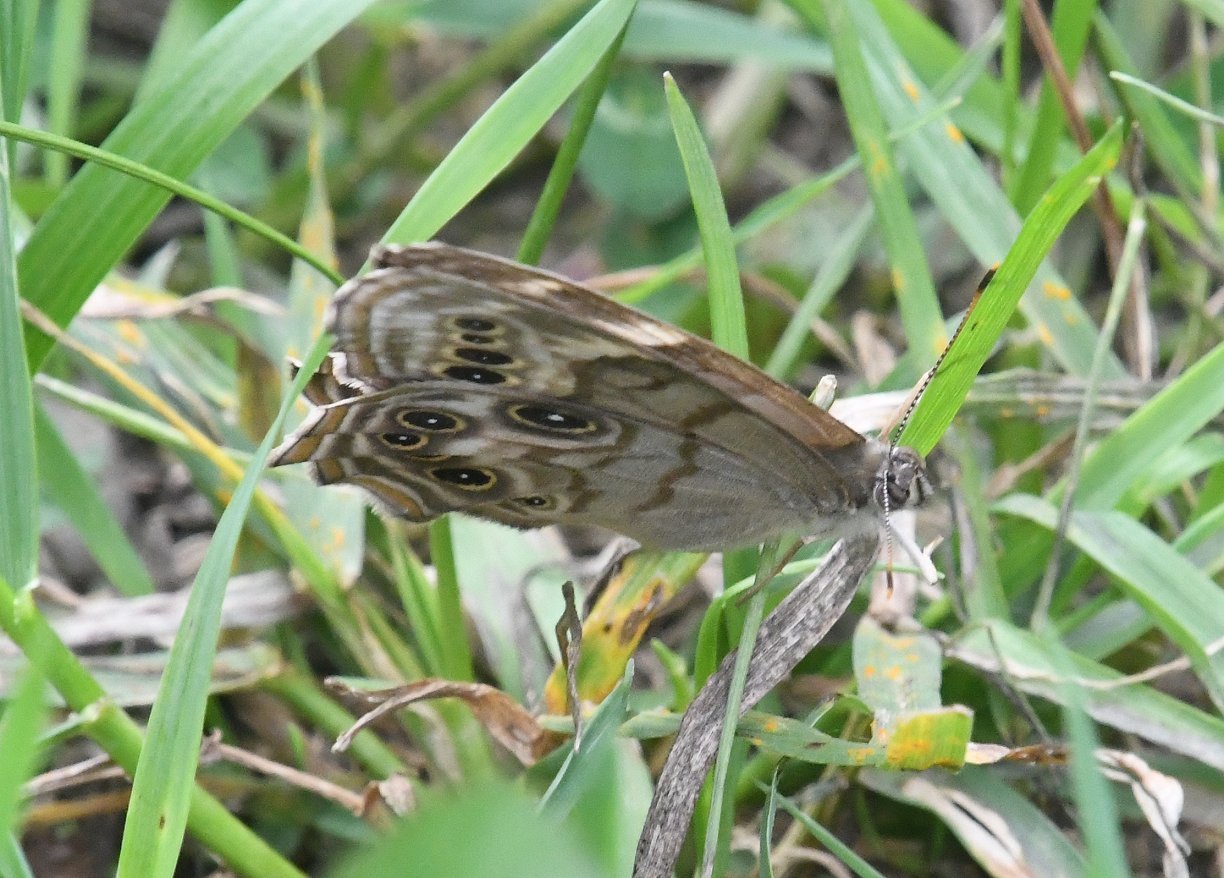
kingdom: Animalia
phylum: Arthropoda
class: Insecta
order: Lepidoptera
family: Nymphalidae
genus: Lethe
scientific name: Lethe anthedon
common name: Northern Pearly-Eye
